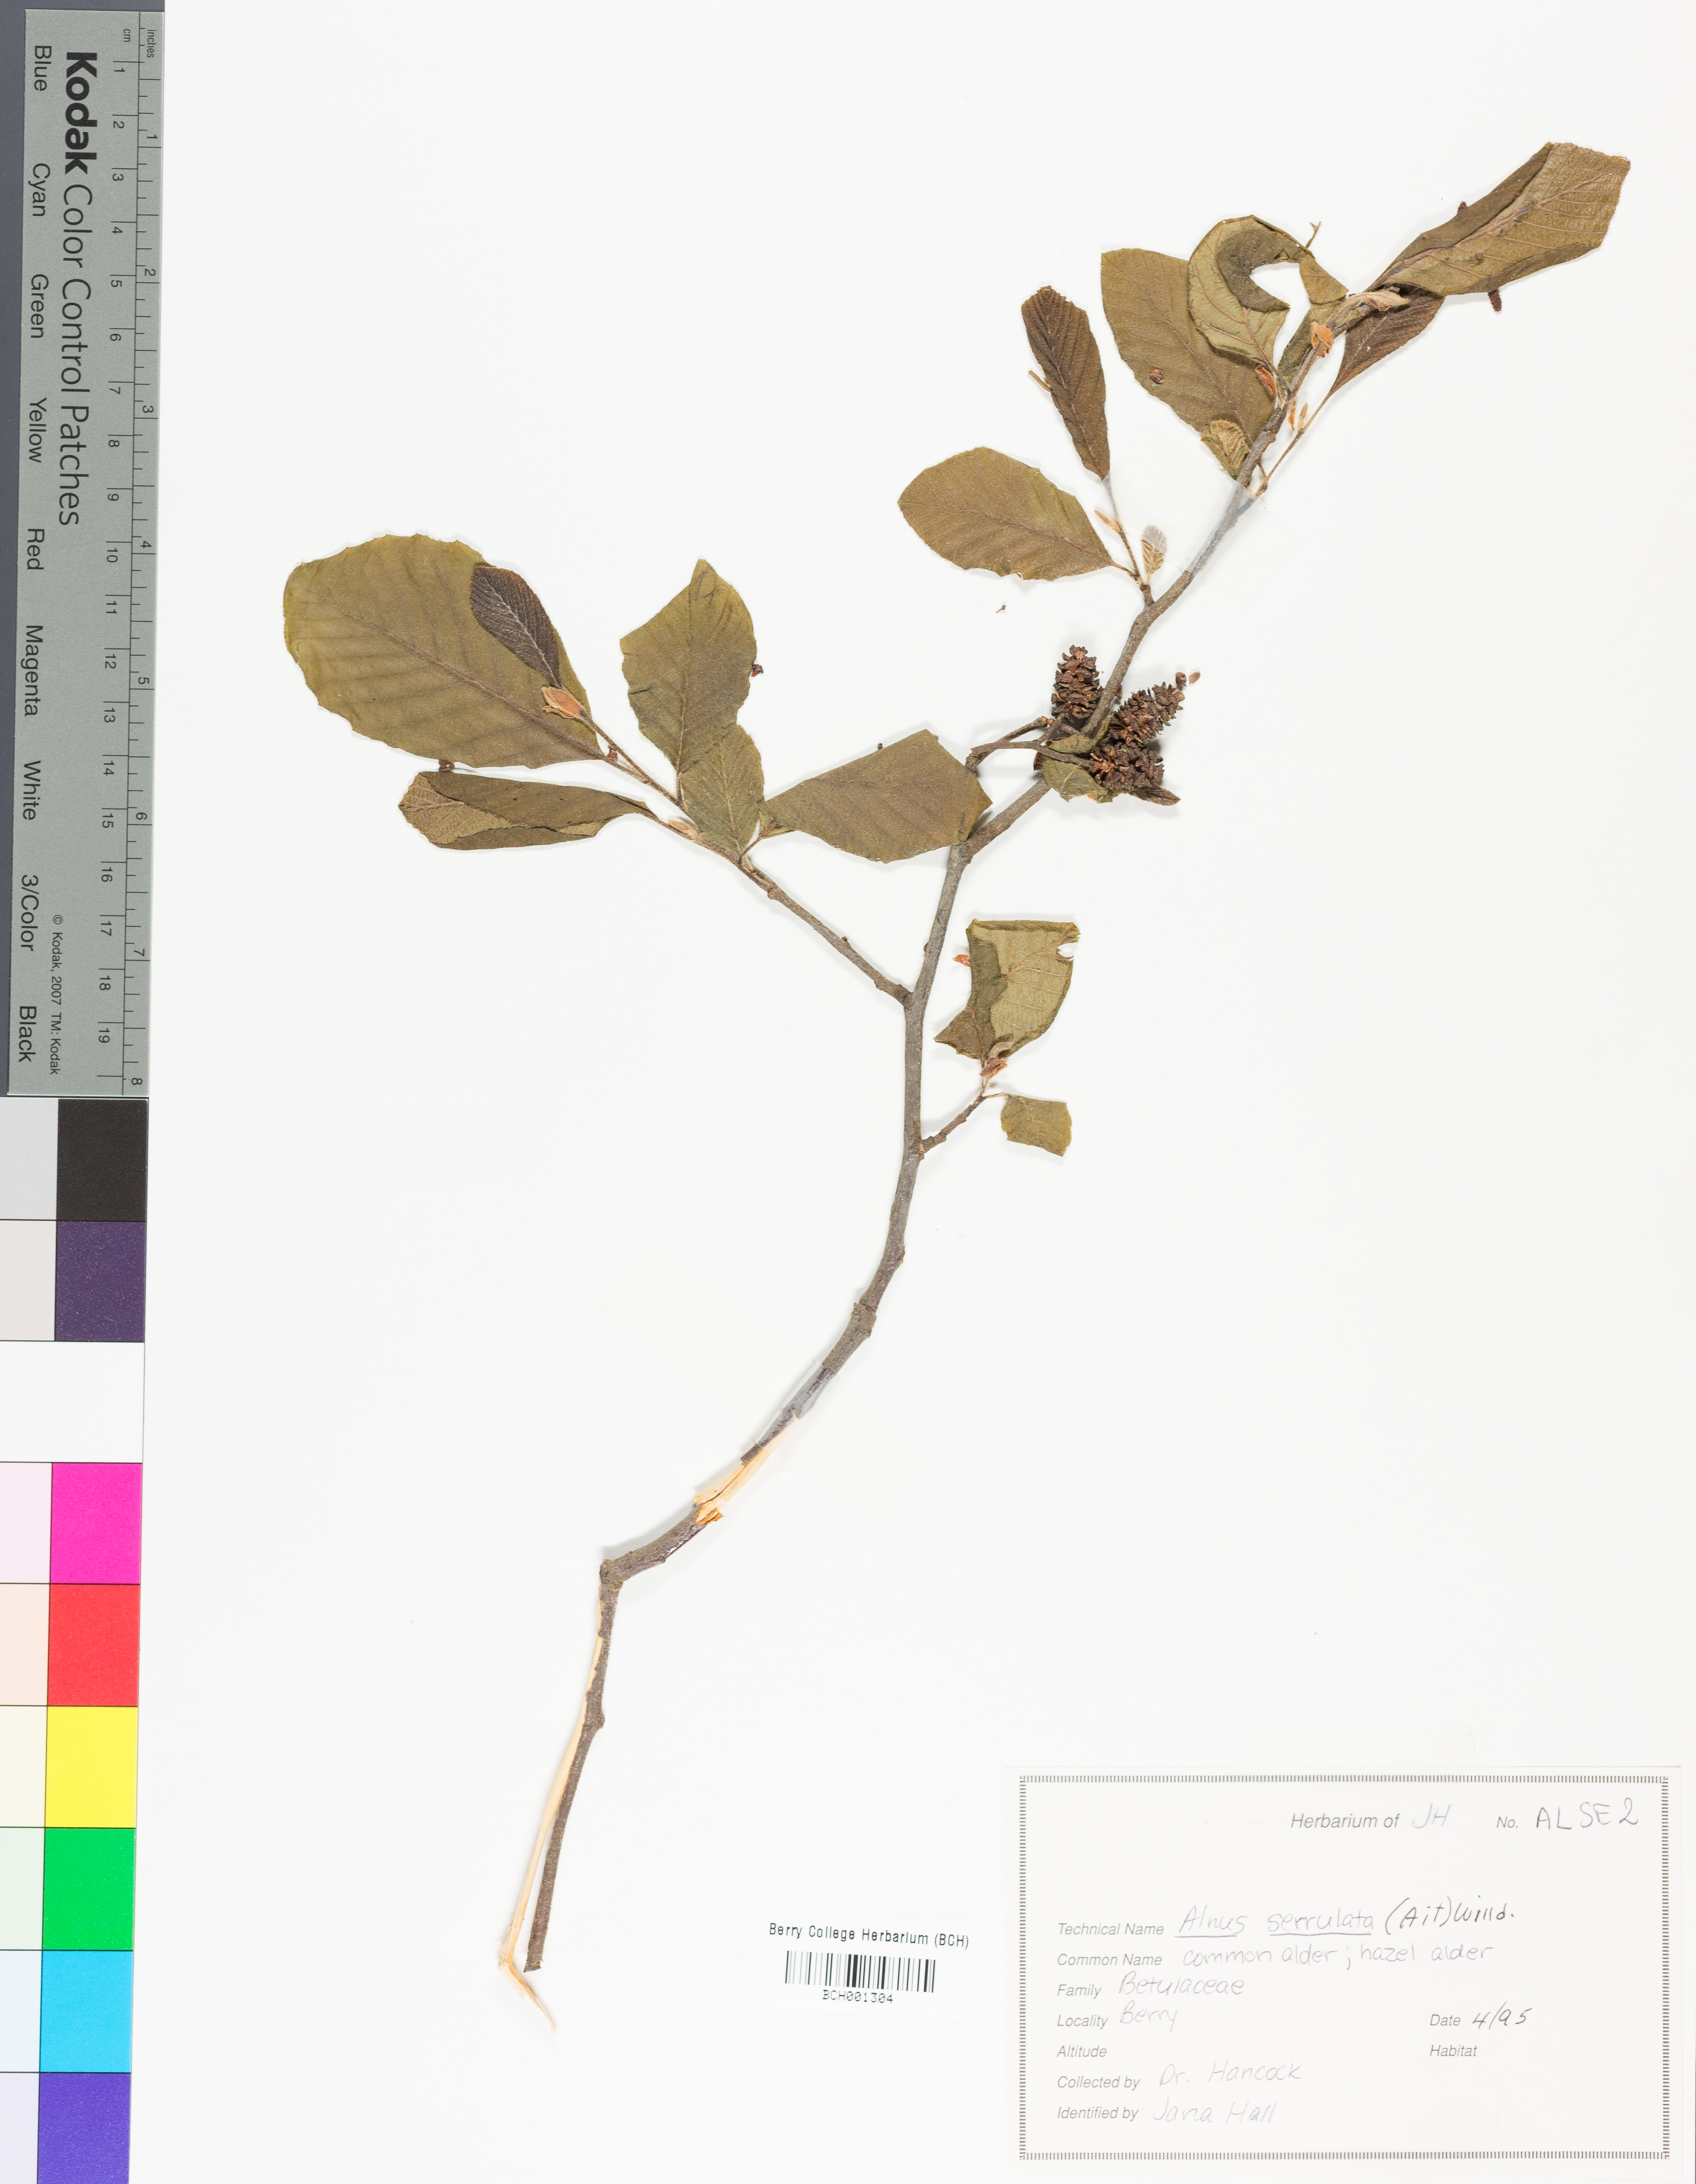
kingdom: Plantae
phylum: Tracheophyta
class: Magnoliopsida
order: Fagales
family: Betulaceae
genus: Alnus
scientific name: Alnus serrulata
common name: Hazel alder
